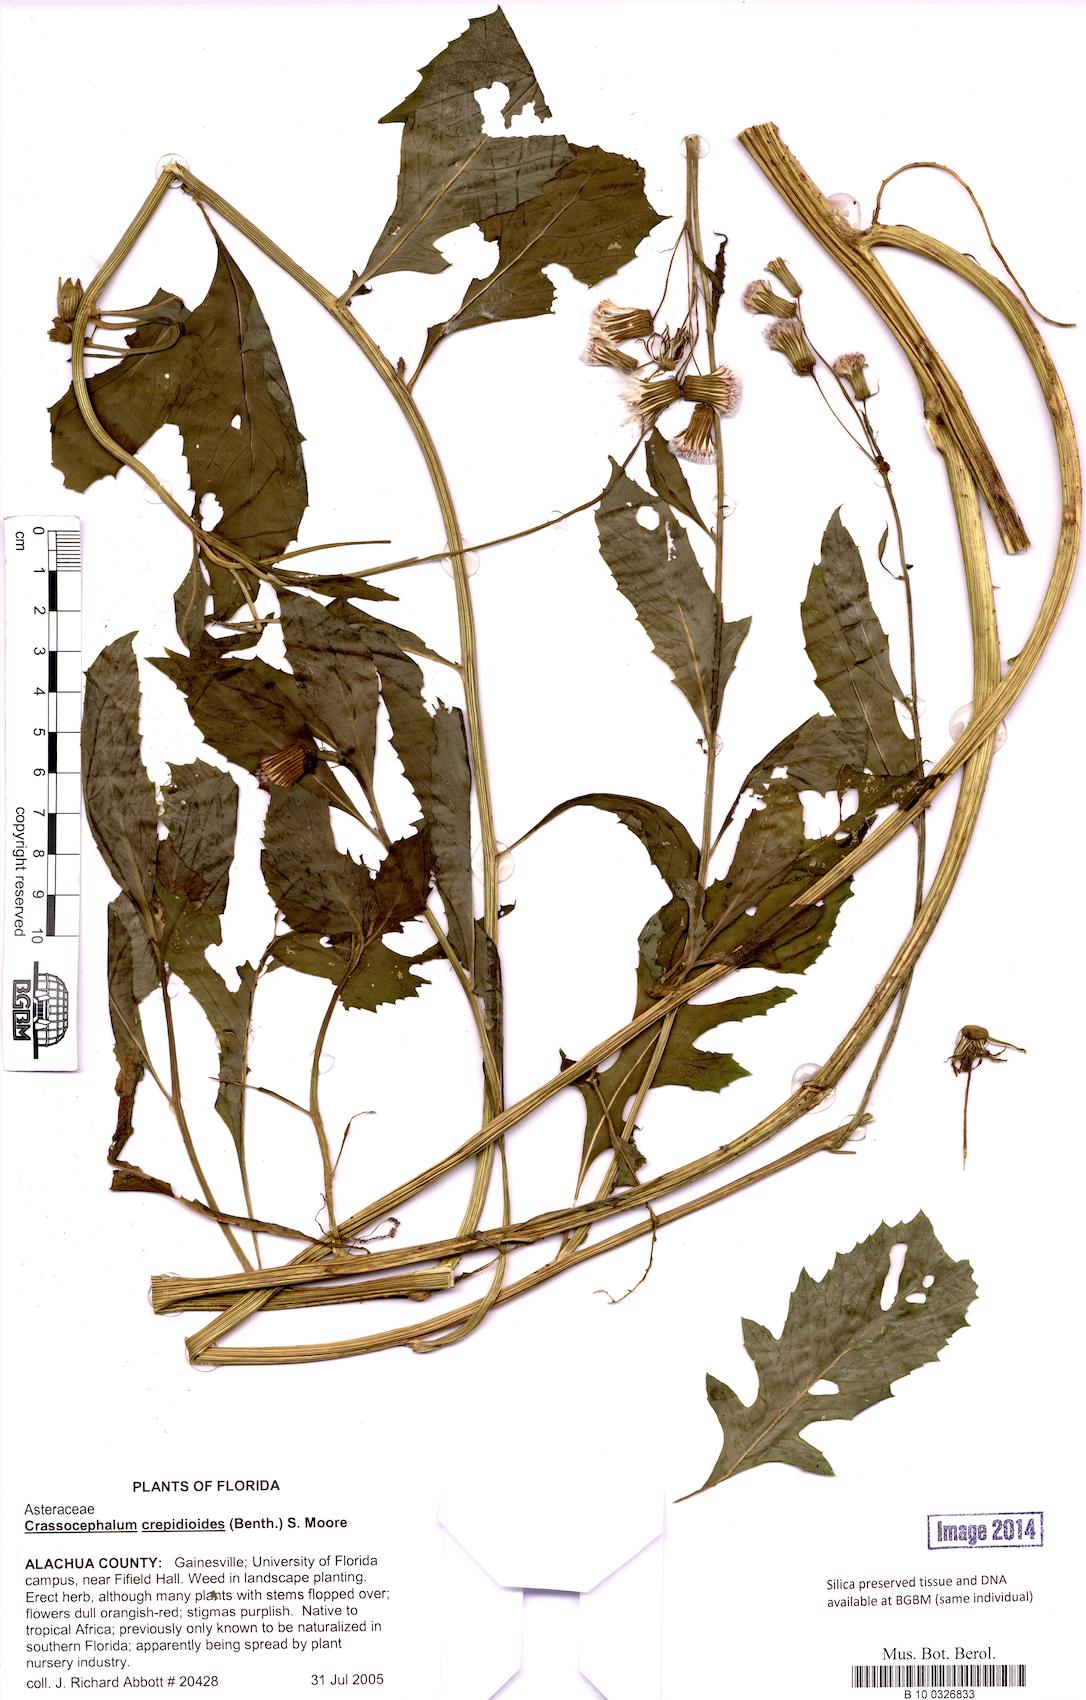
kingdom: Plantae
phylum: Tracheophyta
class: Magnoliopsida
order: Asterales
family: Asteraceae
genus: Crassocephalum
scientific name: Crassocephalum crepidioides
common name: Redflower ragleaf
